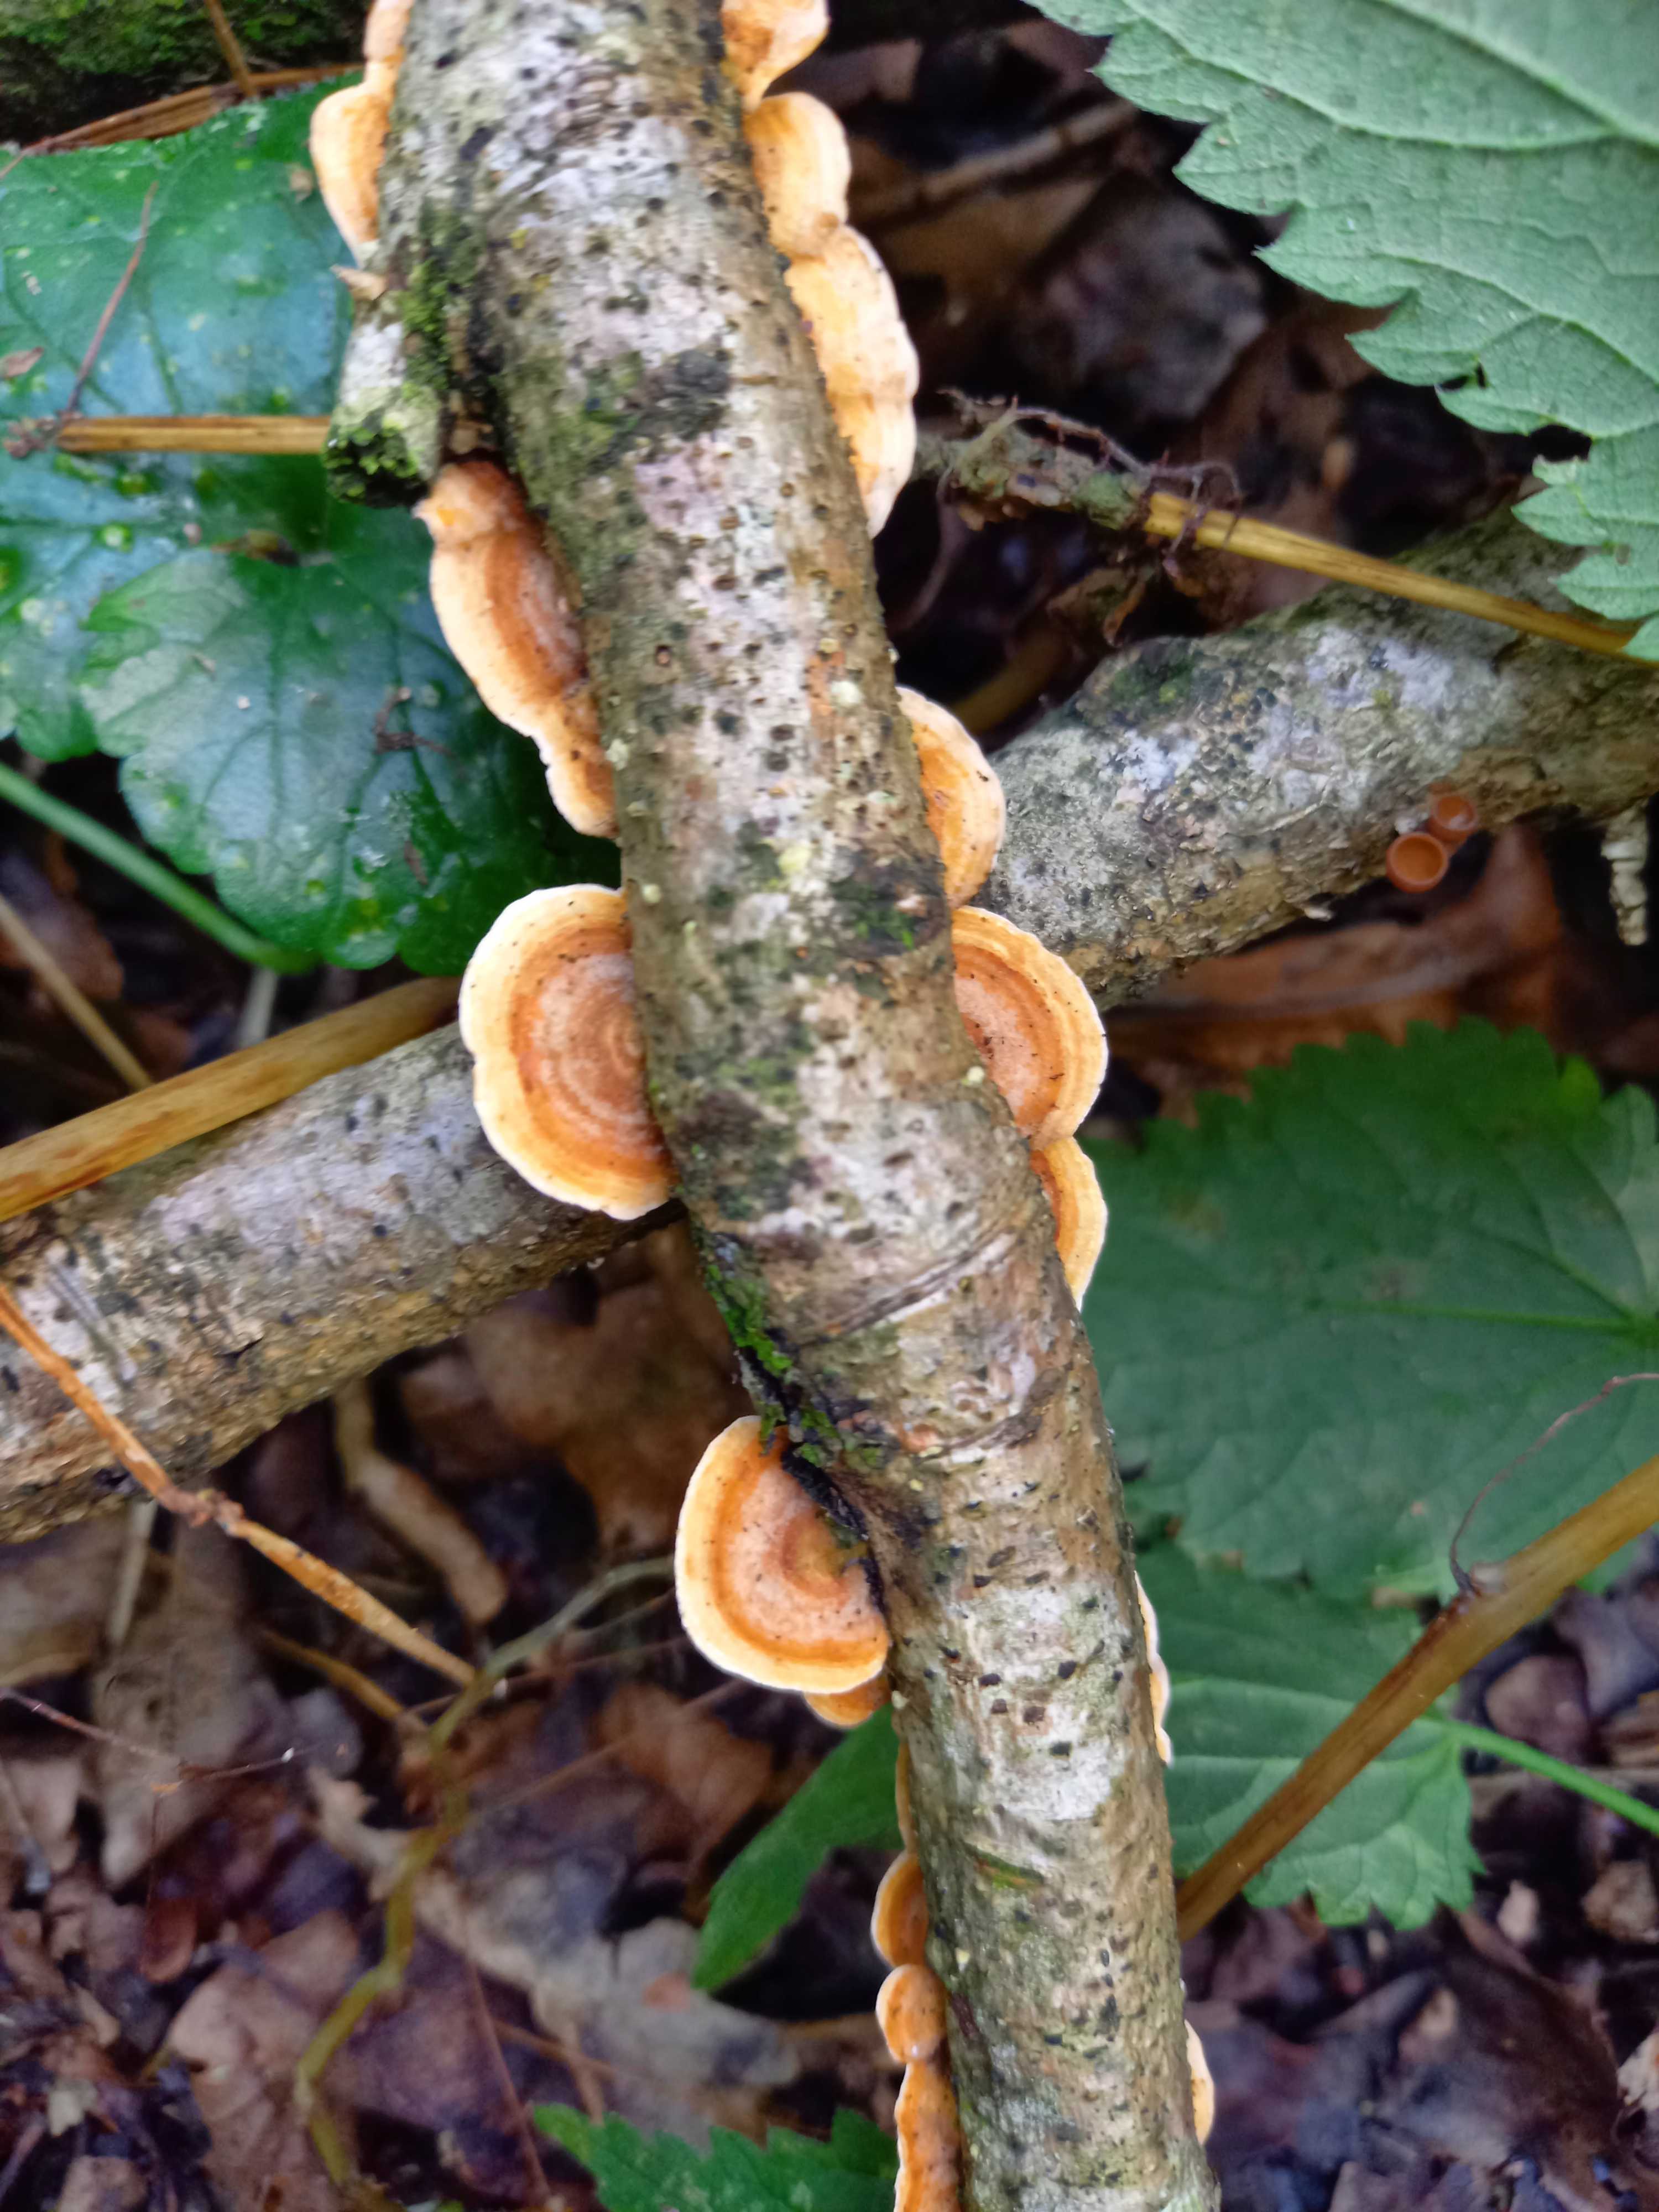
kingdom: Fungi
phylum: Basidiomycota
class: Agaricomycetes
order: Russulales
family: Stereaceae
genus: Stereum
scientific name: Stereum hirsutum
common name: håret lædersvamp
